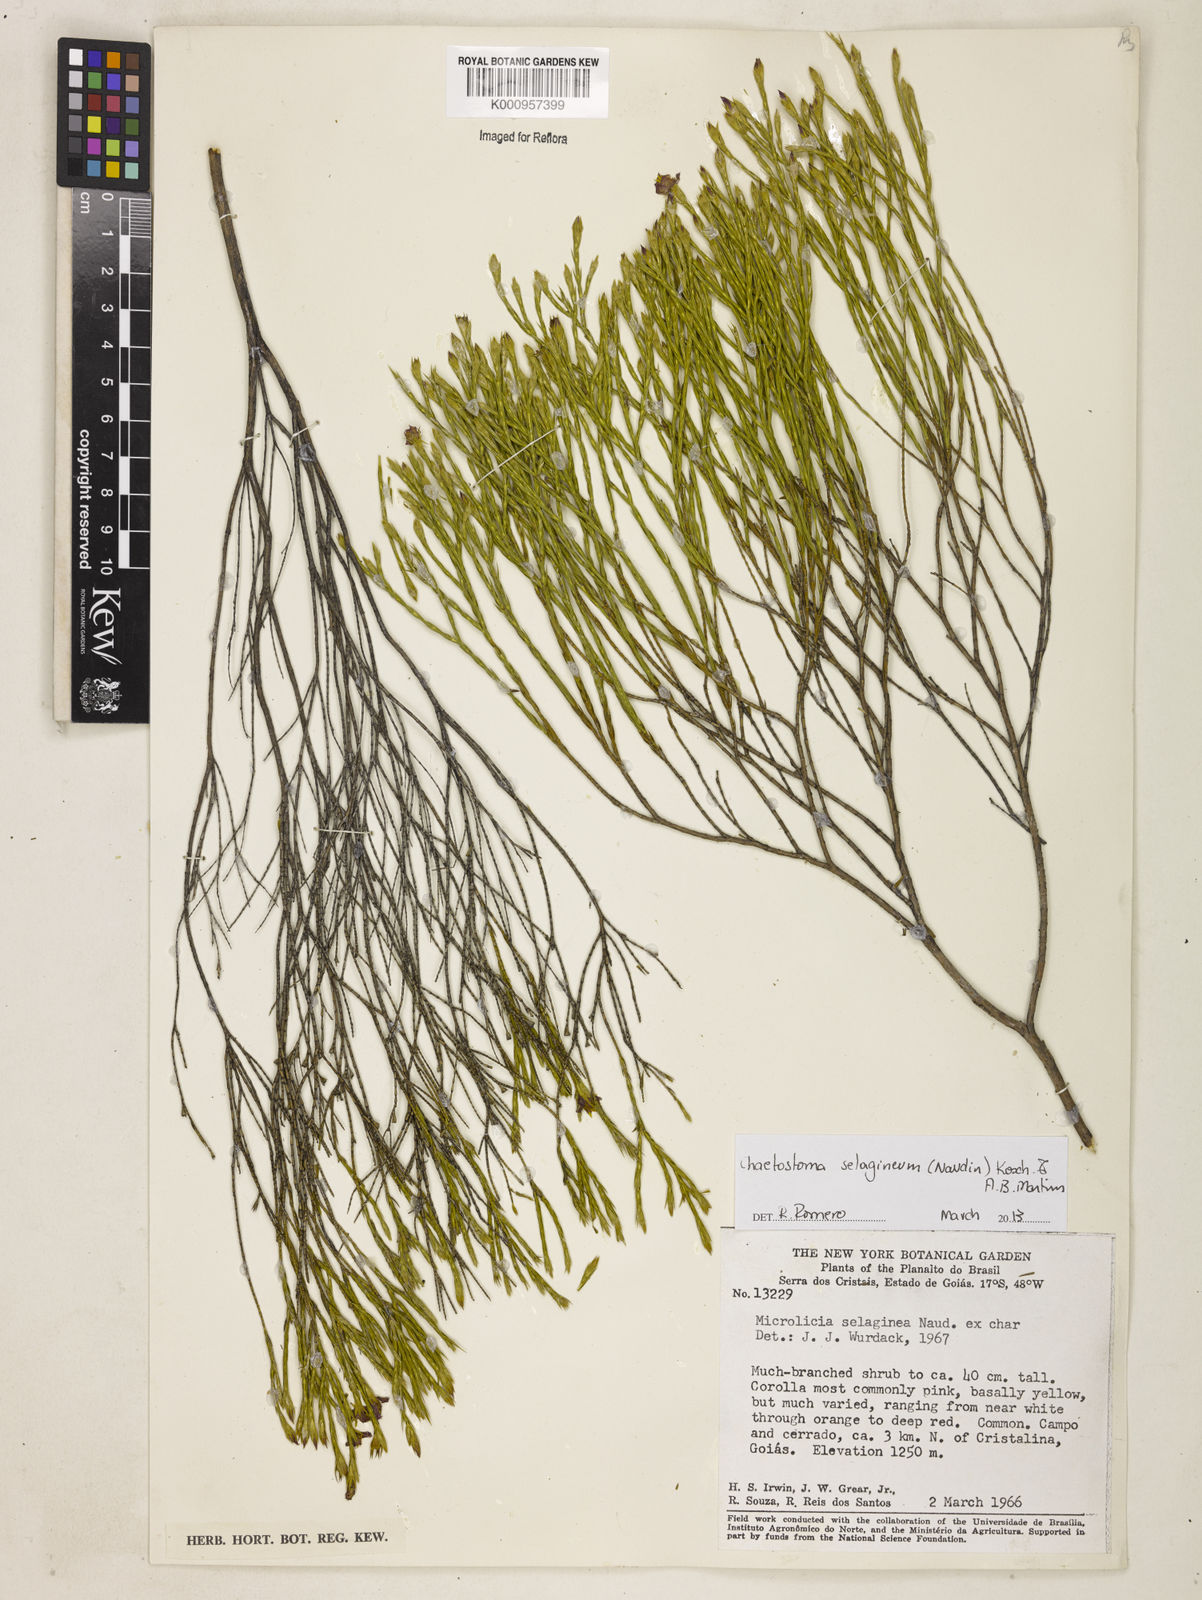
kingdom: Plantae
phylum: Tracheophyta
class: Magnoliopsida
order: Myrtales
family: Melastomataceae
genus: Microlicia
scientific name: Microlicia
